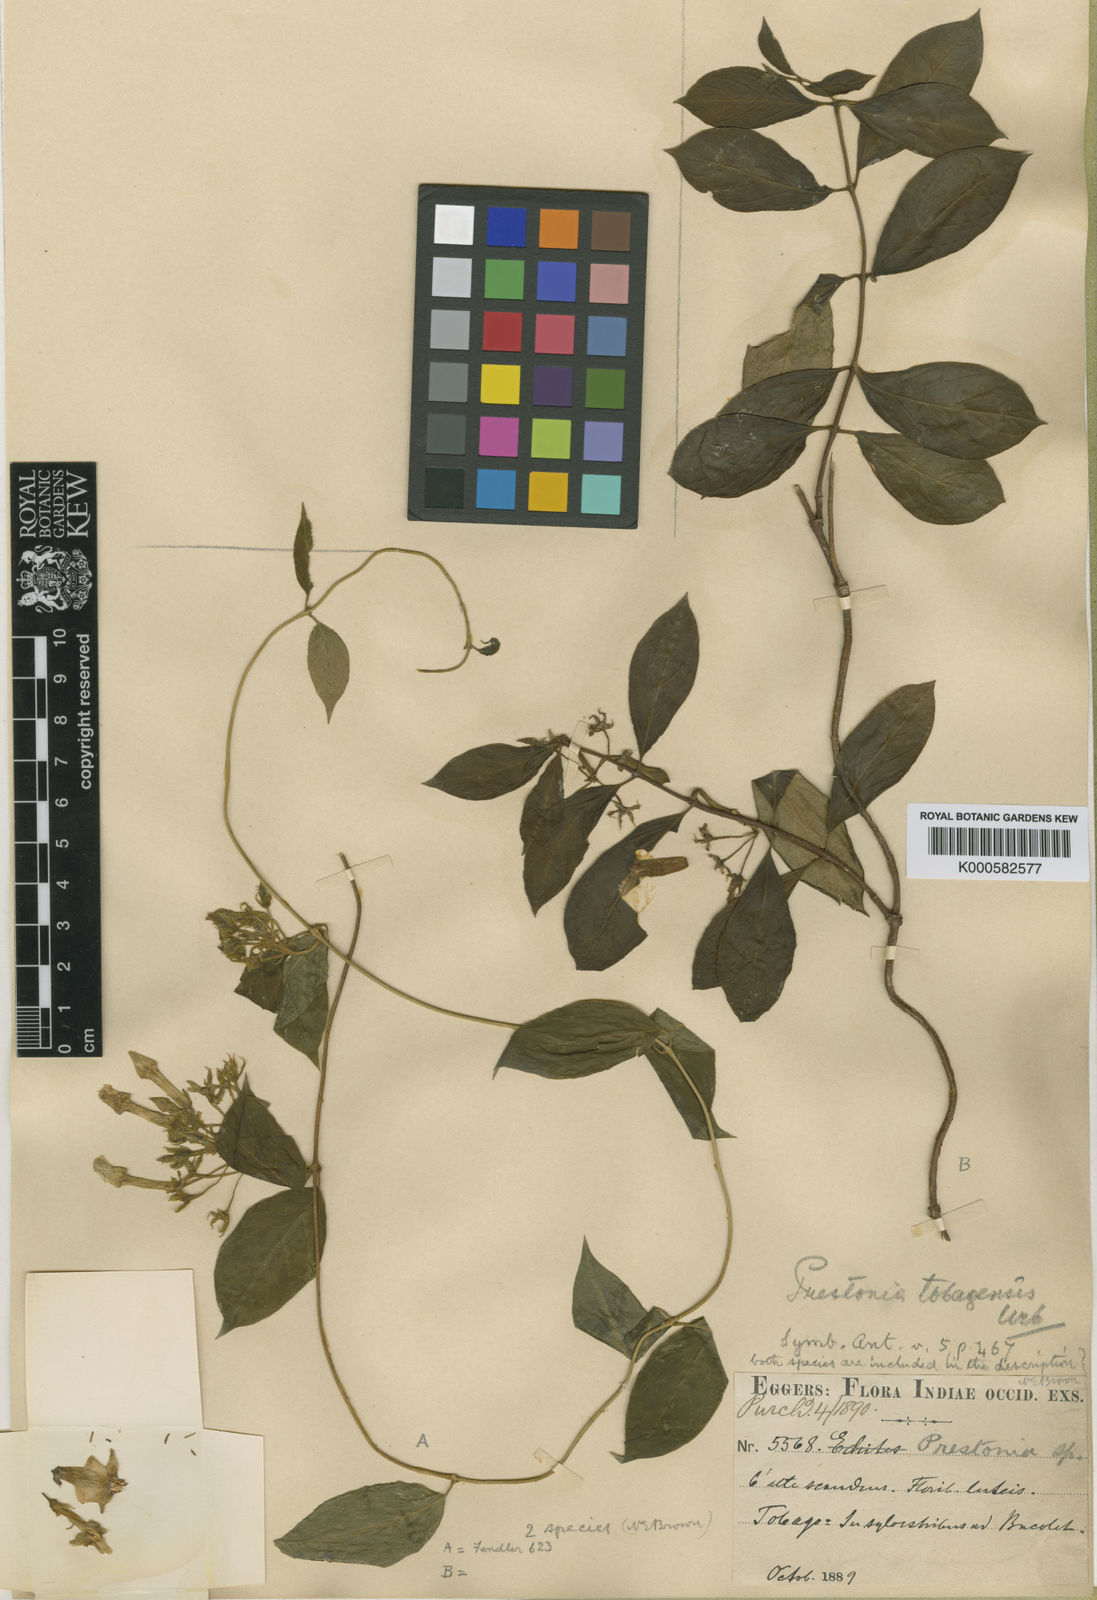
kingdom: Plantae
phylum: Tracheophyta
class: Magnoliopsida
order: Gentianales
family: Apocynaceae
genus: Prestonia
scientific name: Prestonia exserta
